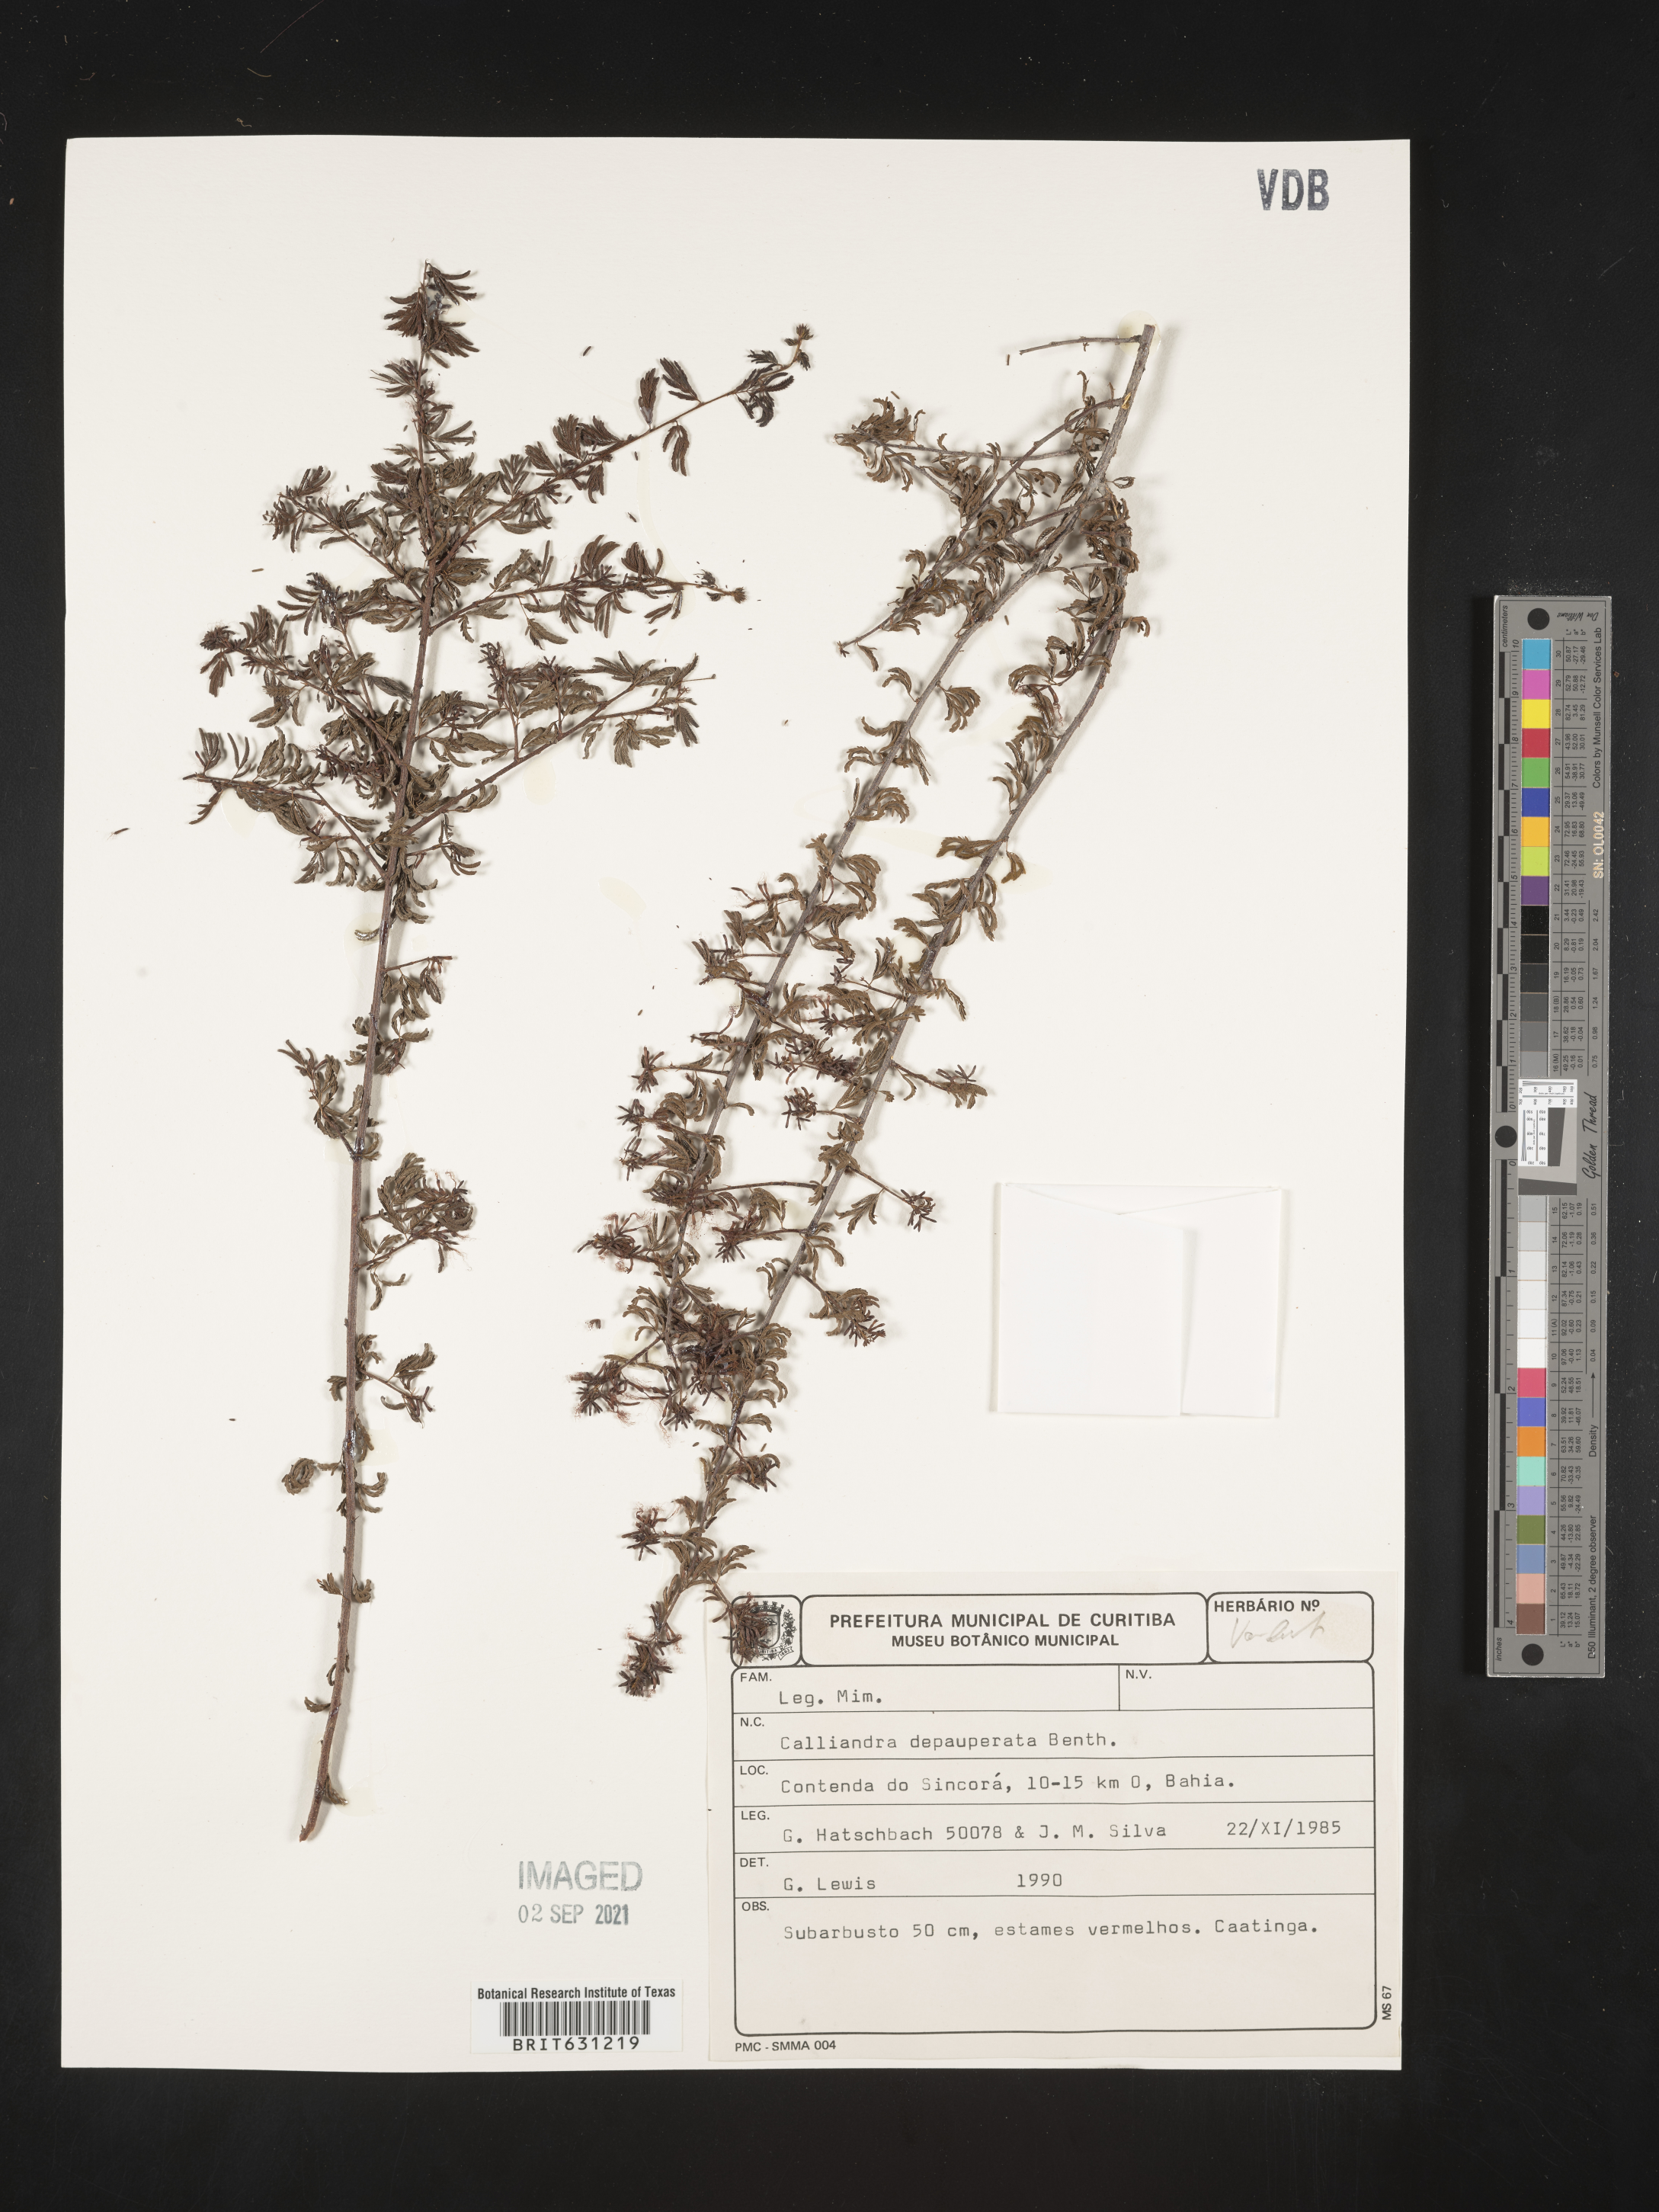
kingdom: Plantae
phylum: Tracheophyta
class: Magnoliopsida
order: Fabales
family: Fabaceae
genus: Calliandra
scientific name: Calliandra depauperata
